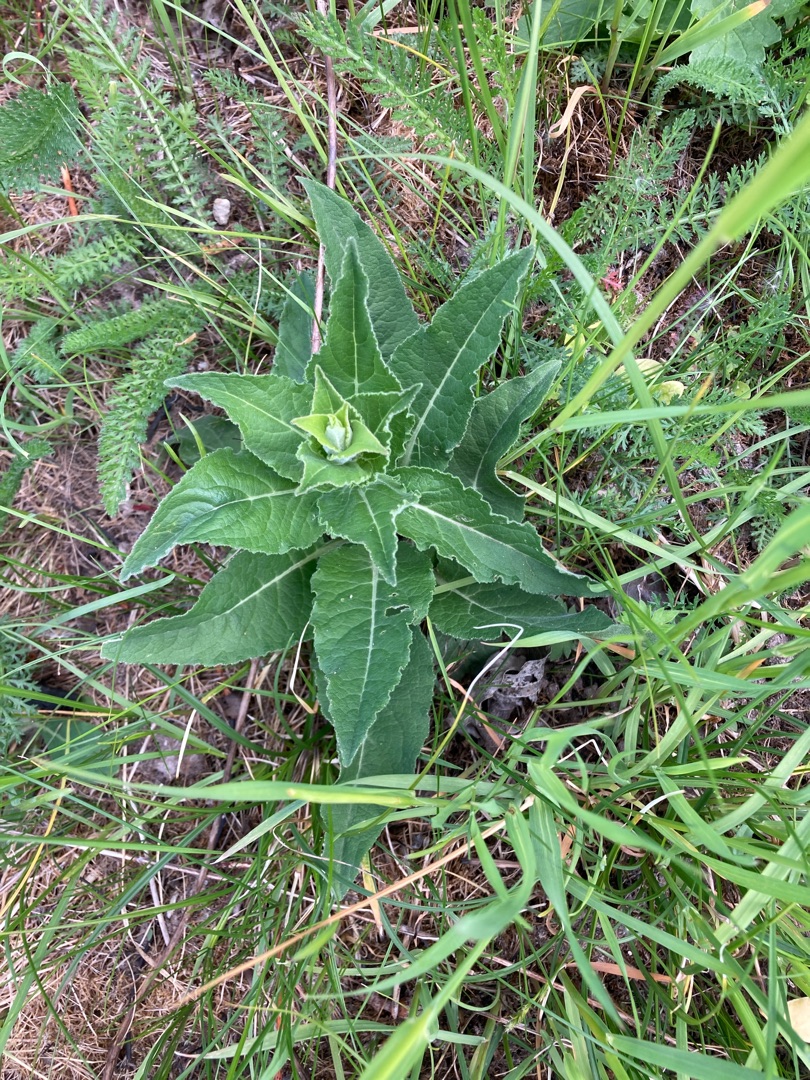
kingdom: Plantae
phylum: Tracheophyta
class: Magnoliopsida
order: Asterales
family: Campanulaceae
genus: Campanula
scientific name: Campanula glomerata
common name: Nøgleblomstret klokke
